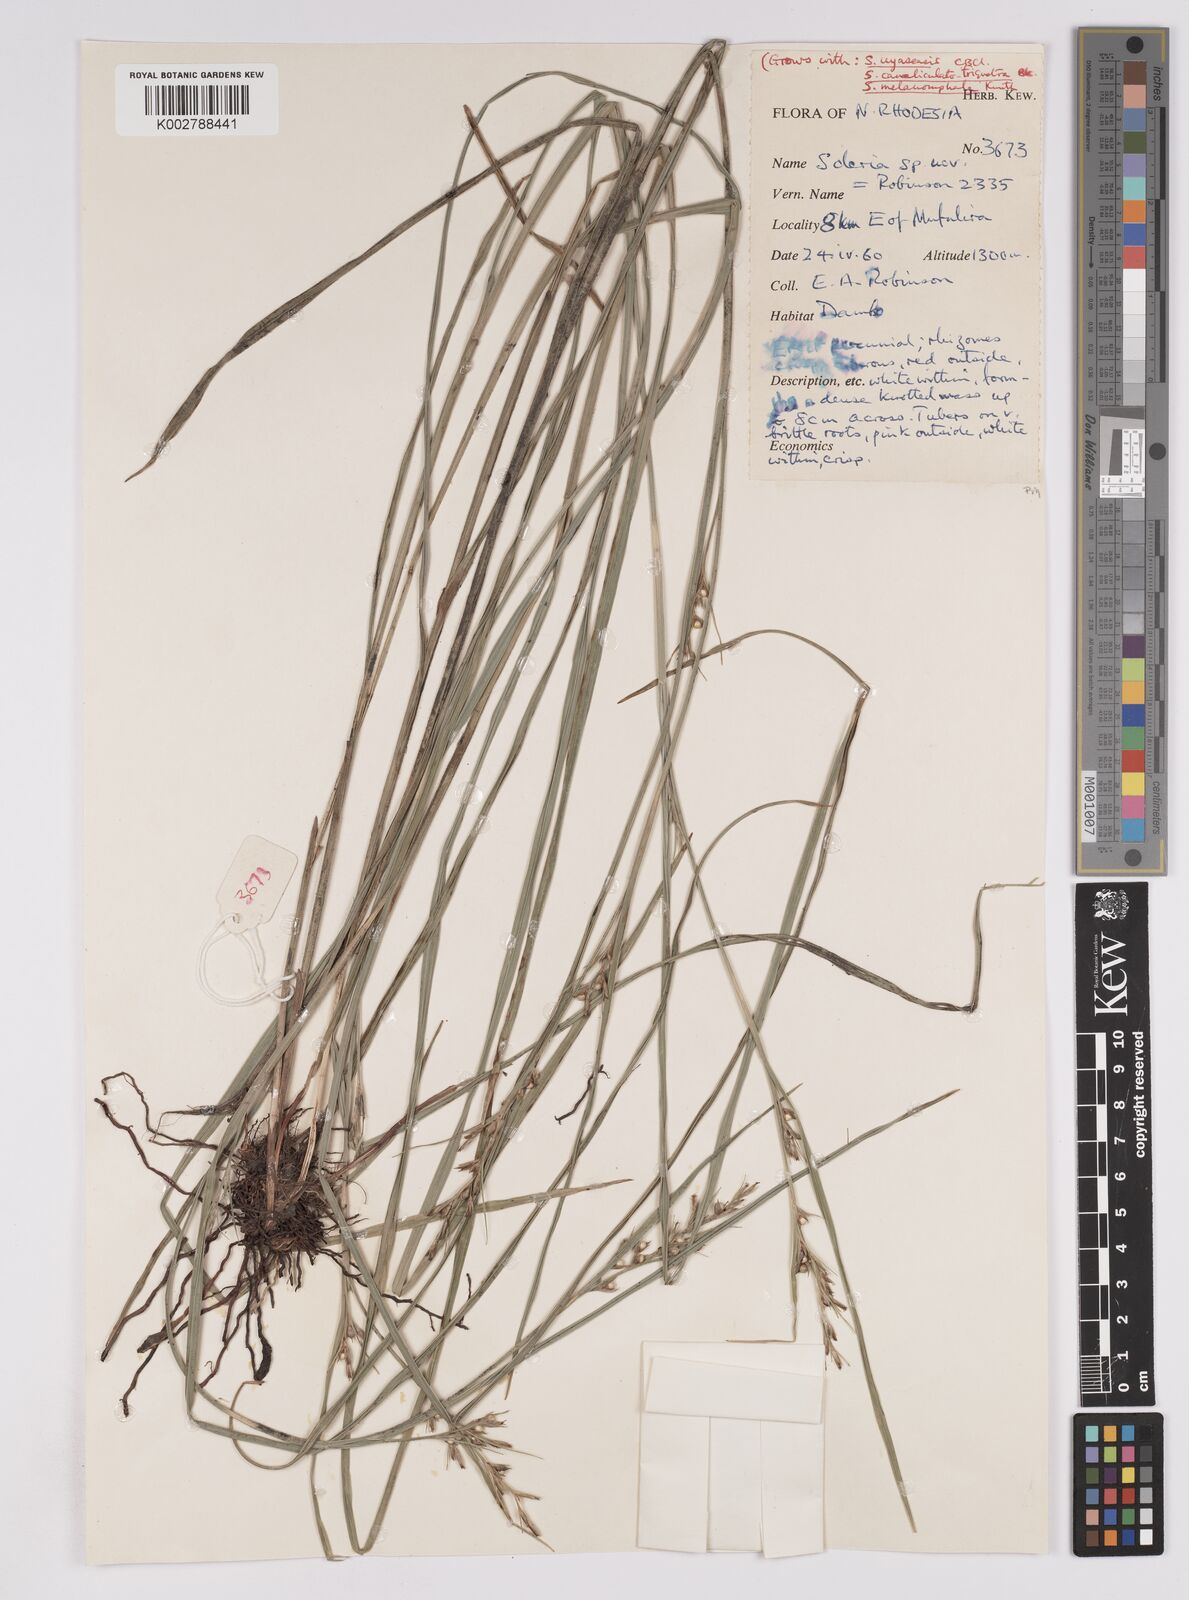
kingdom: Plantae
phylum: Tracheophyta
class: Liliopsida
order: Poales
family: Cyperaceae
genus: Scleria
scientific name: Scleria adpressohirta
